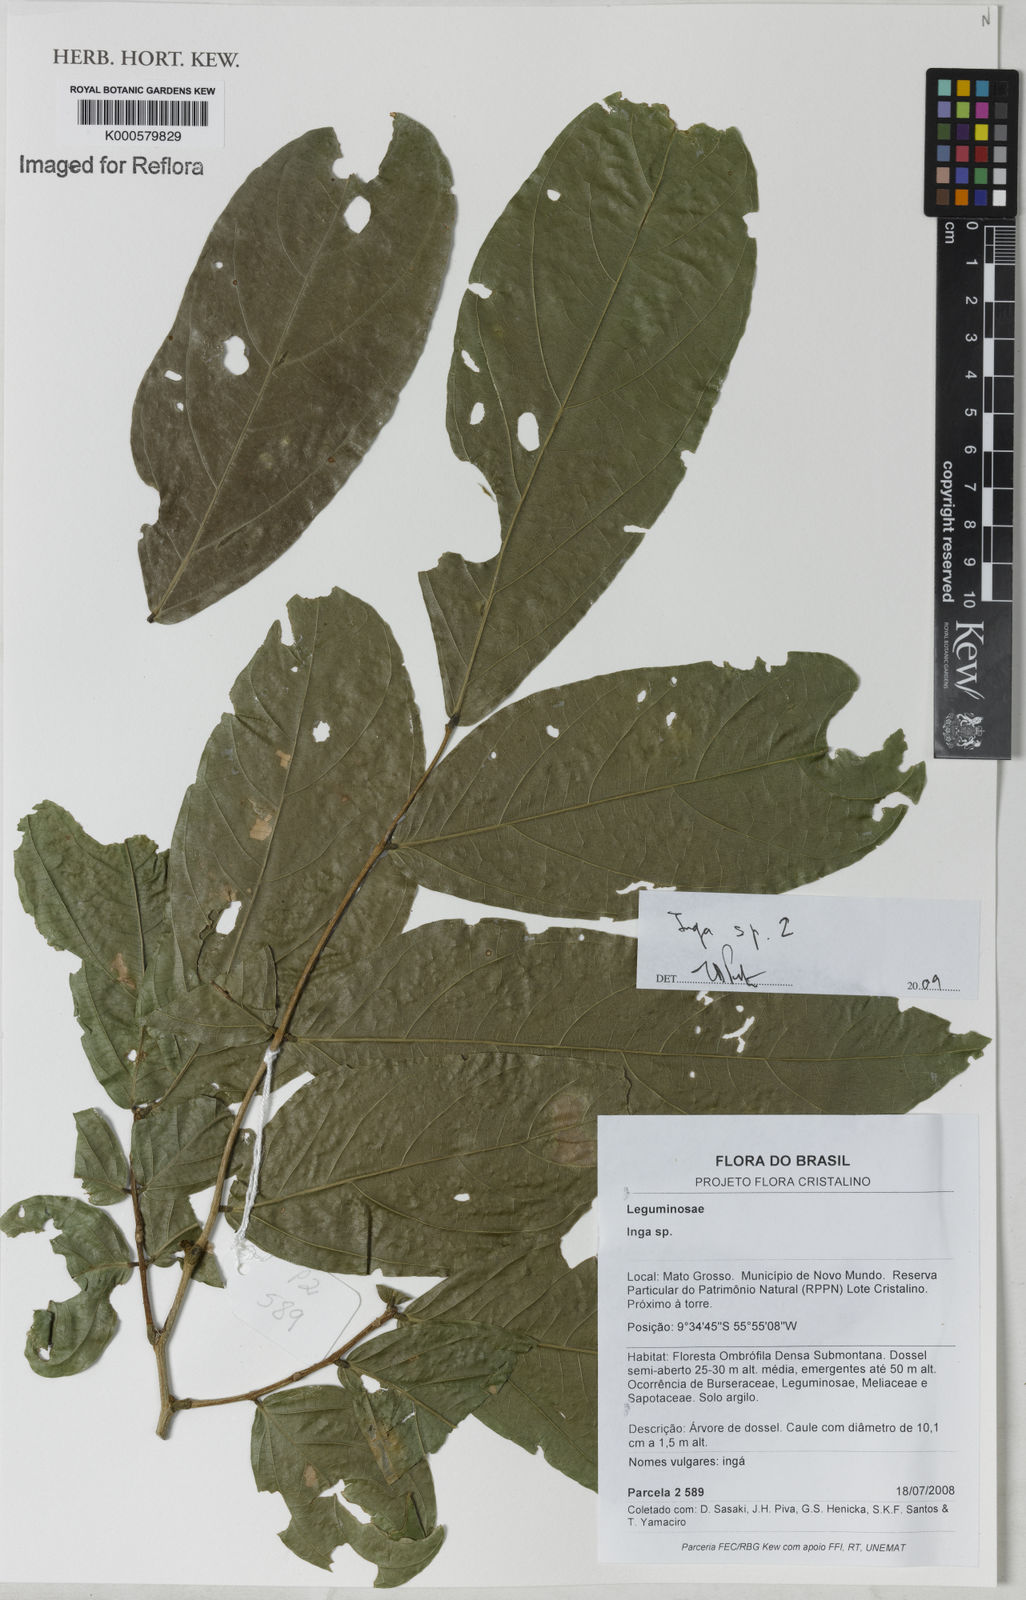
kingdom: Plantae
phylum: Tracheophyta
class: Magnoliopsida
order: Fabales
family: Fabaceae
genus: Inga
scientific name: Inga
